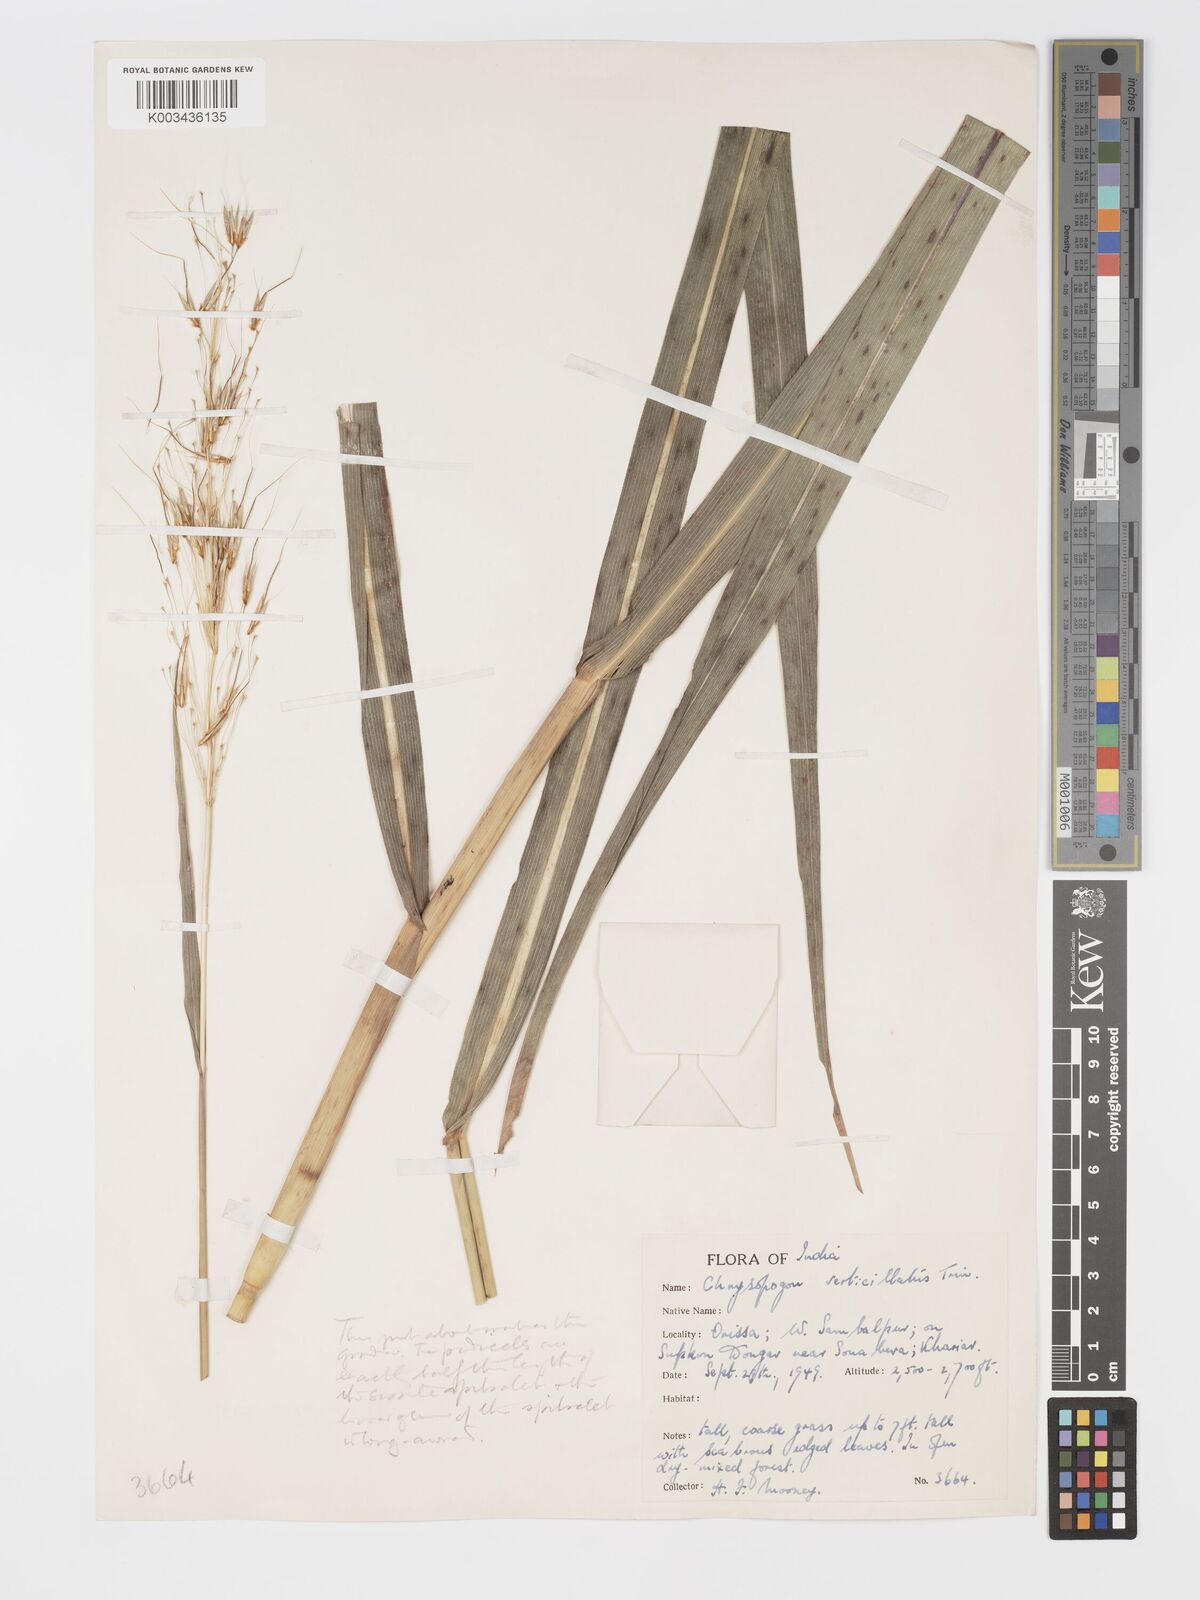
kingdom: Plantae
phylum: Tracheophyta
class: Liliopsida
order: Poales
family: Poaceae
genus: Chrysopogon
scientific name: Chrysopogon verticillatus
